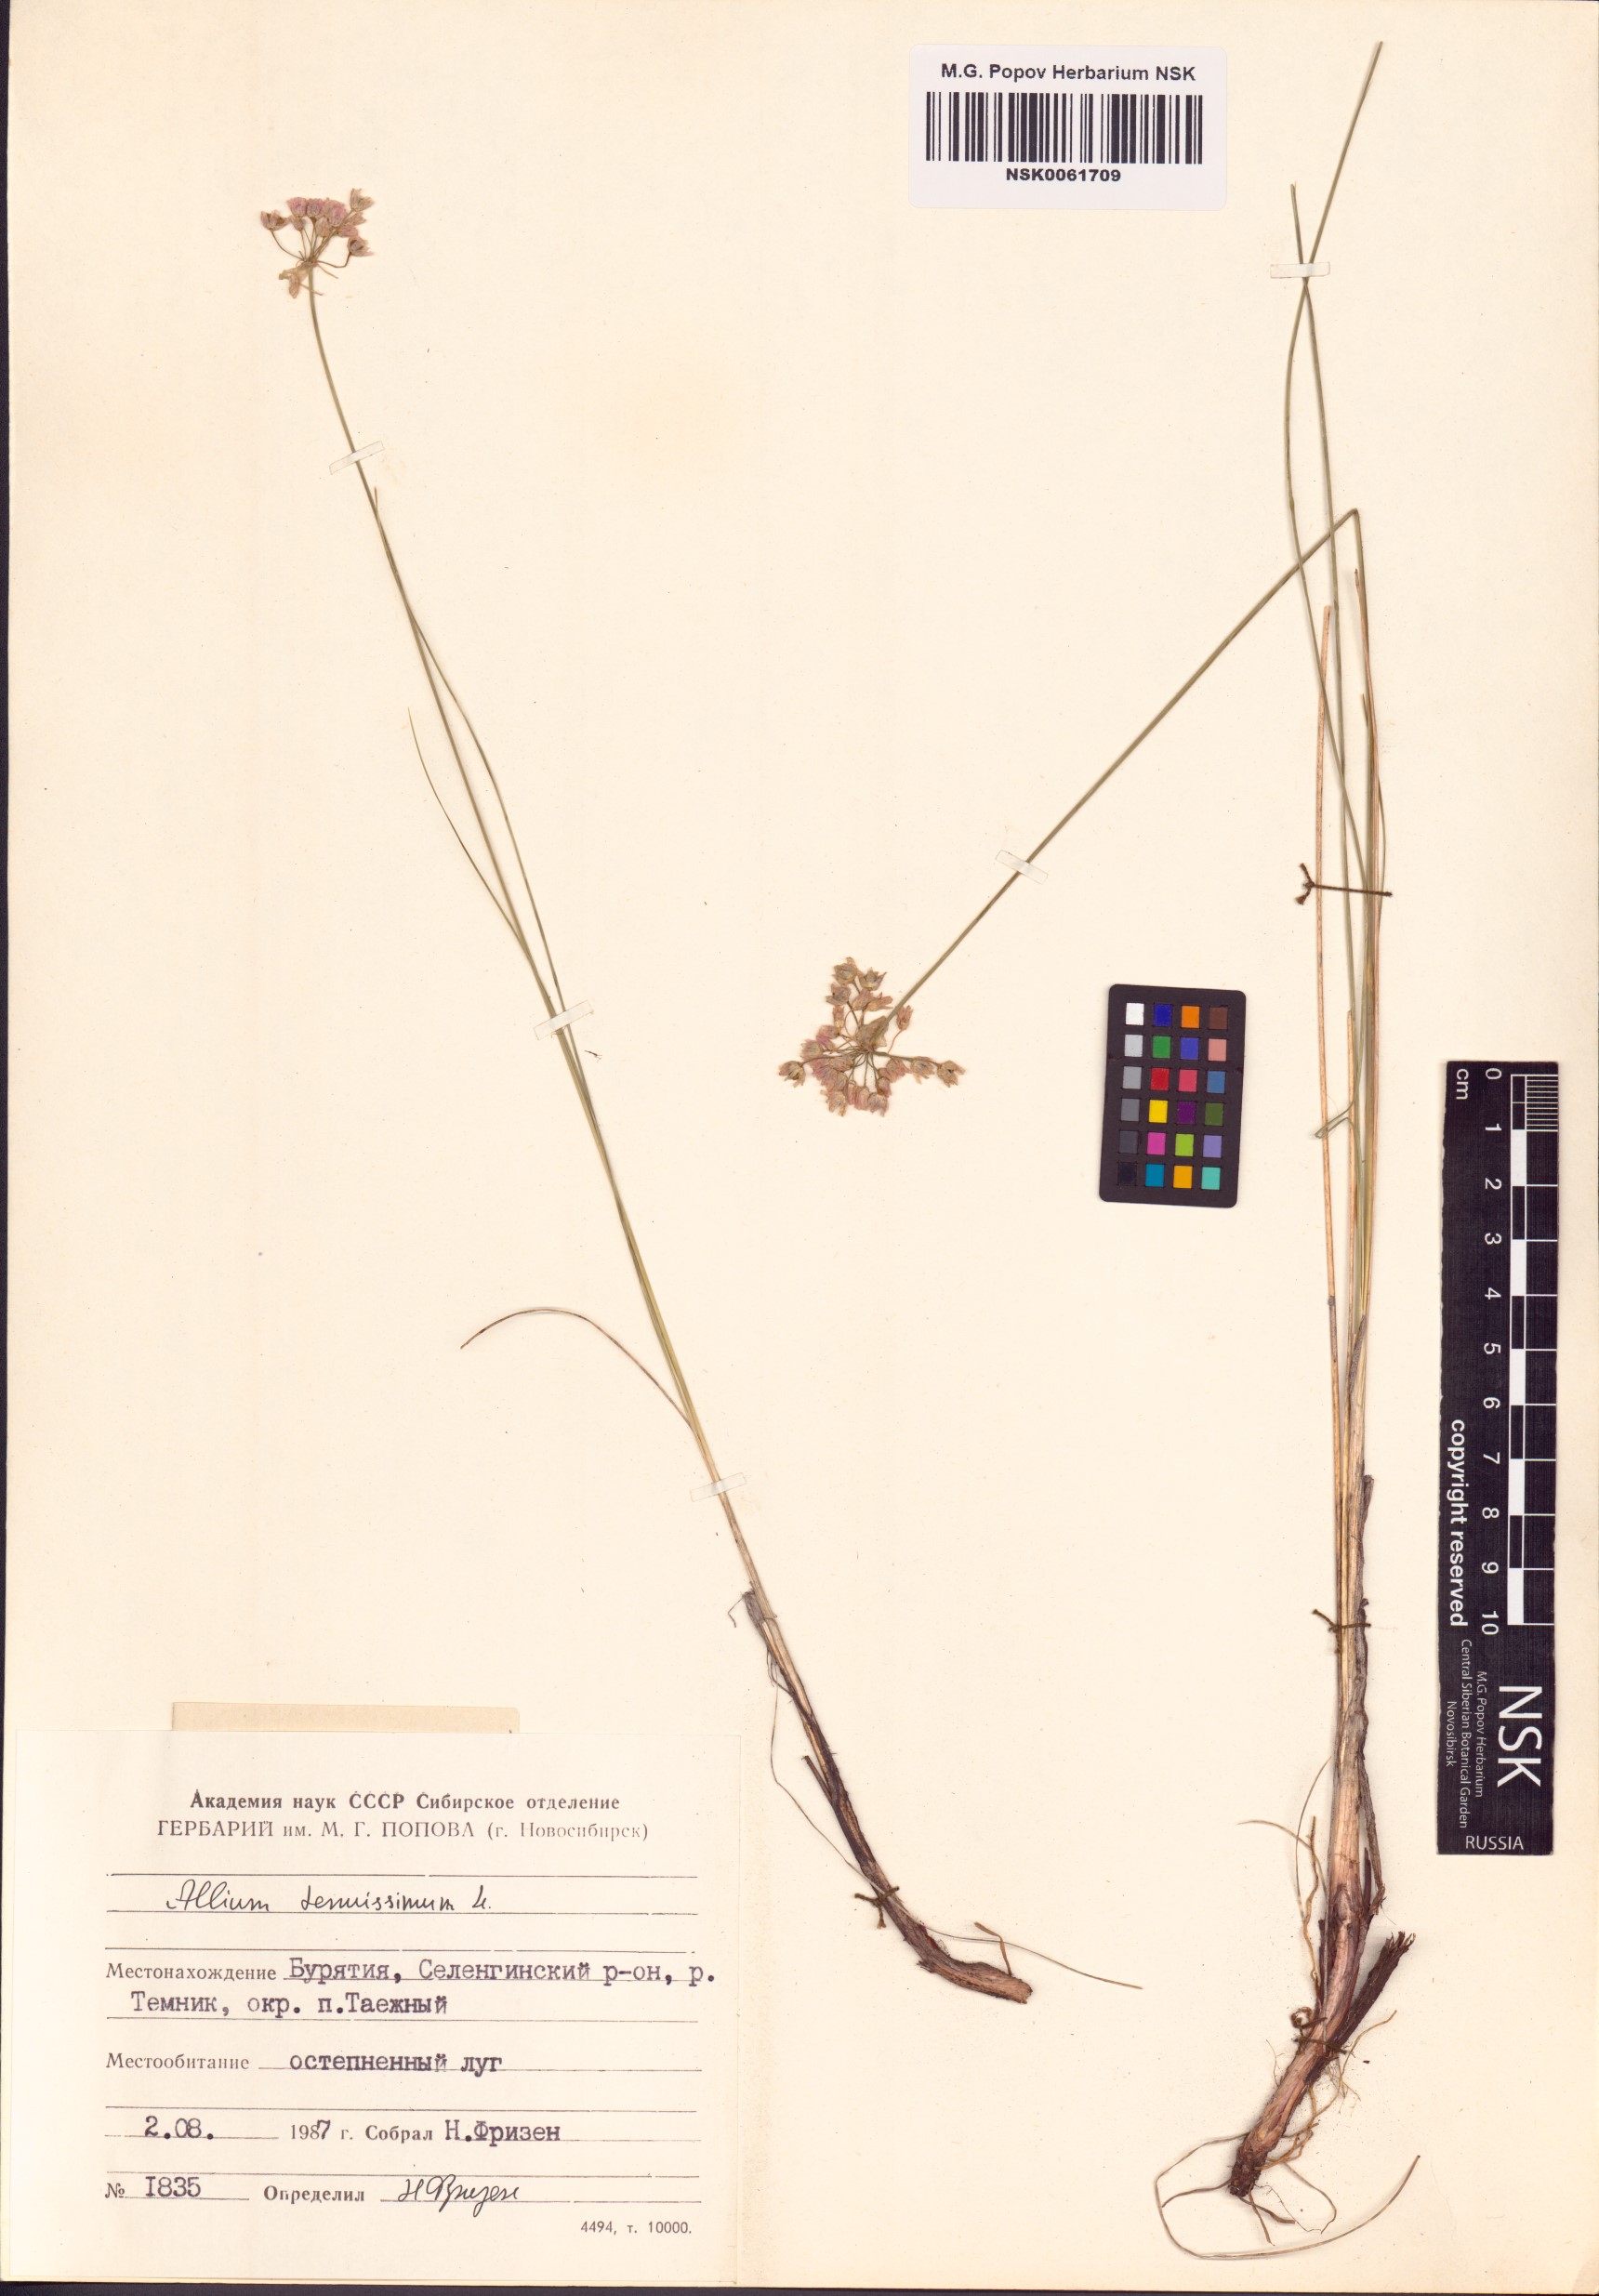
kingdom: Plantae
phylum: Tracheophyta
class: Liliopsida
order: Asparagales
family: Amaryllidaceae
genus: Allium
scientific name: Allium tenuissimum
